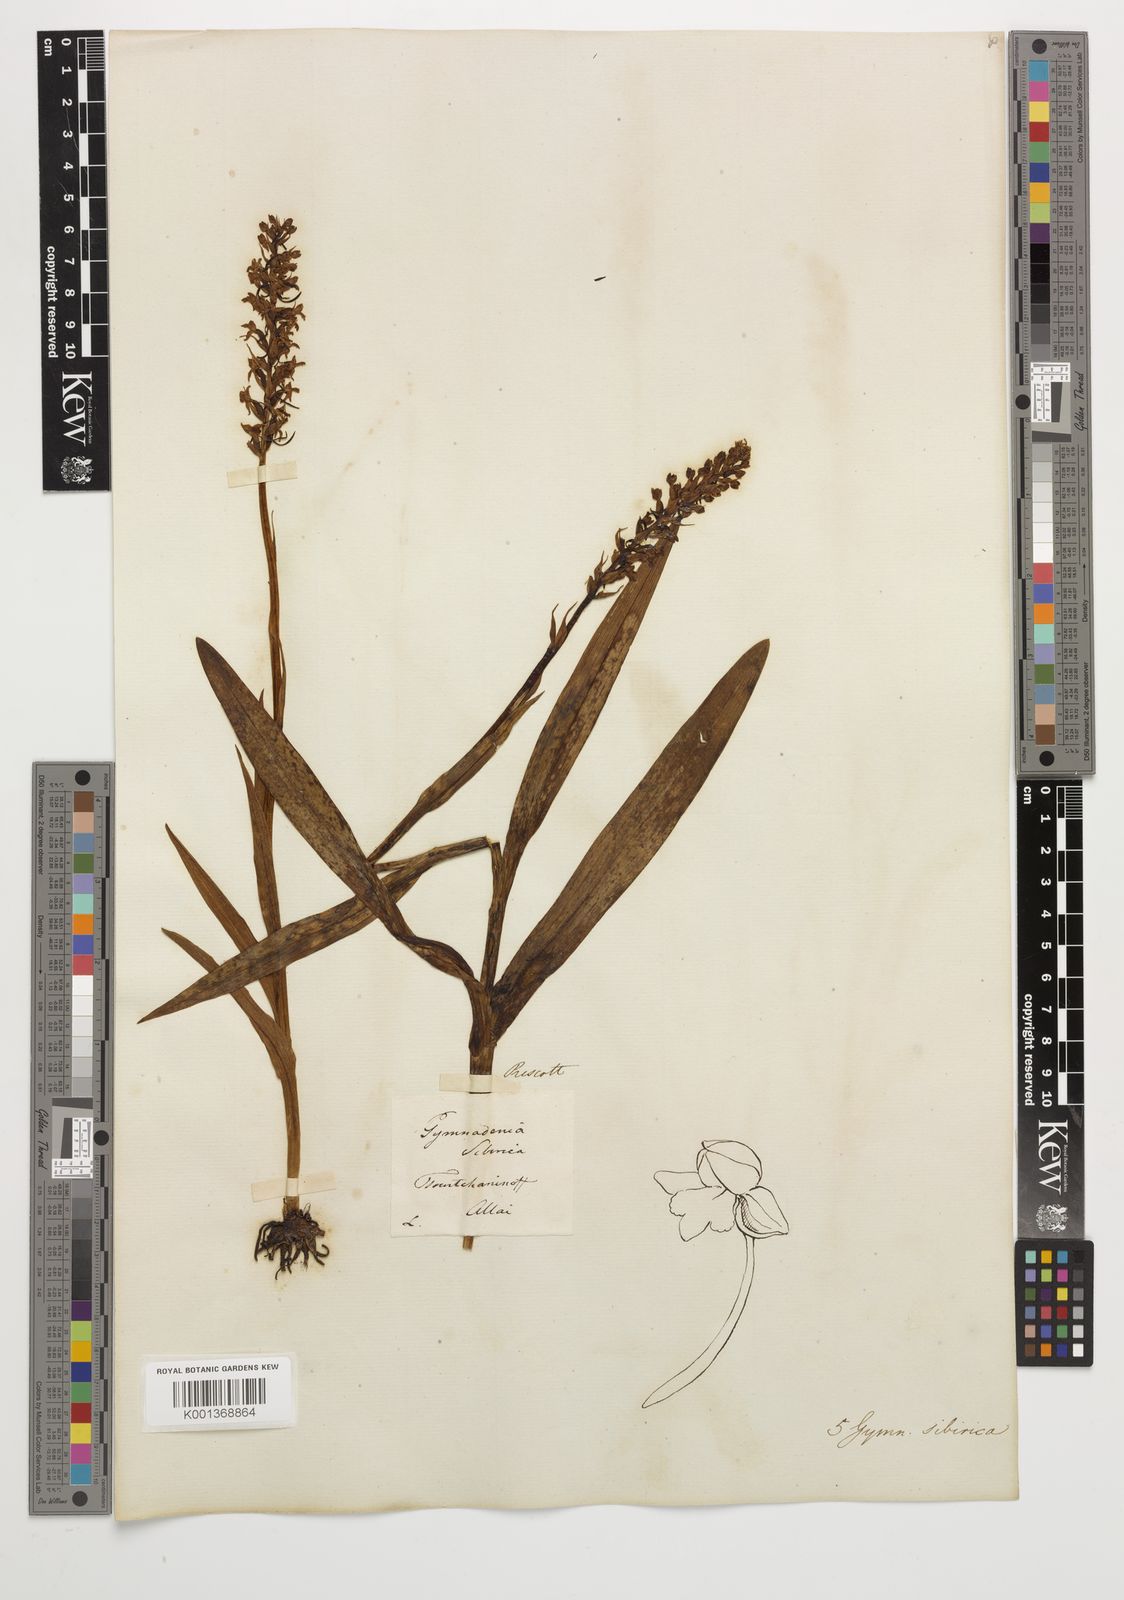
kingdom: Plantae
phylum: Tracheophyta
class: Liliopsida
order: Asparagales
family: Orchidaceae
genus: Gymnadenia
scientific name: Gymnadenia conopsea
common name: Fragrant orchid
